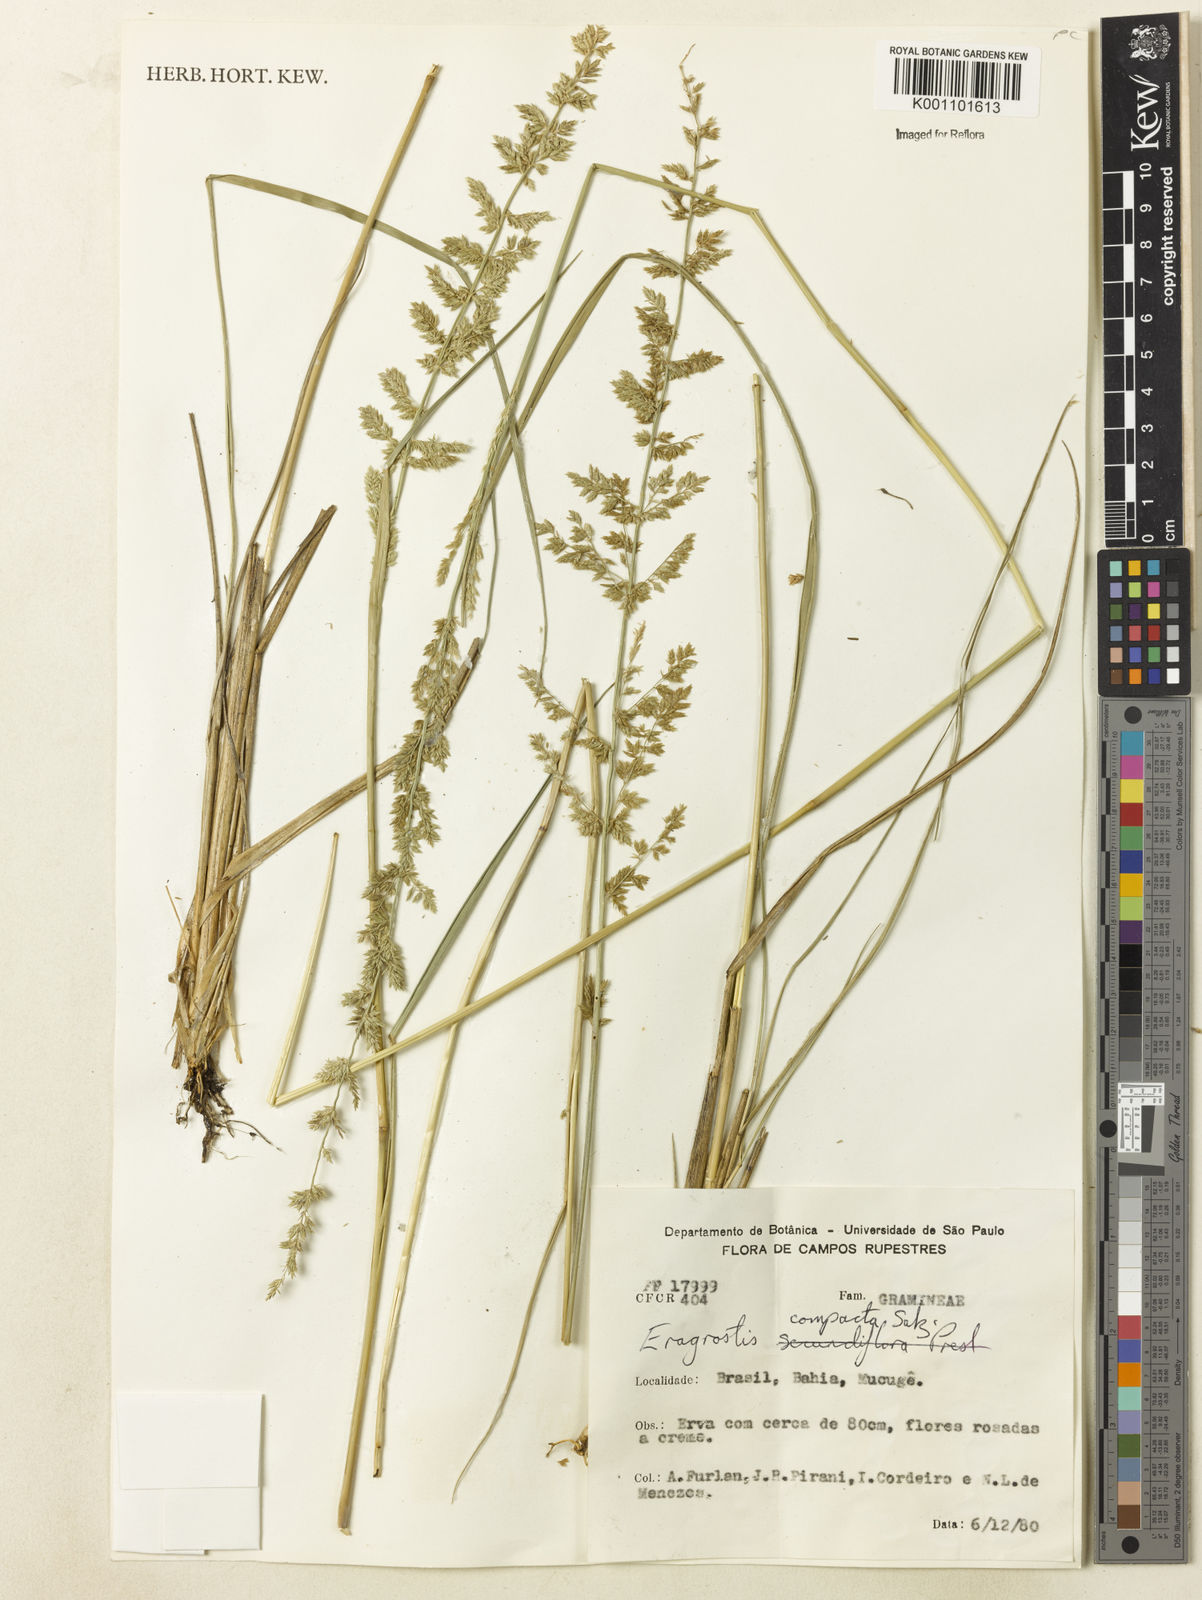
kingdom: Plantae
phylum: Tracheophyta
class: Liliopsida
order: Poales
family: Poaceae
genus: Eragrostis
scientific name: Eragrostis petrensis
